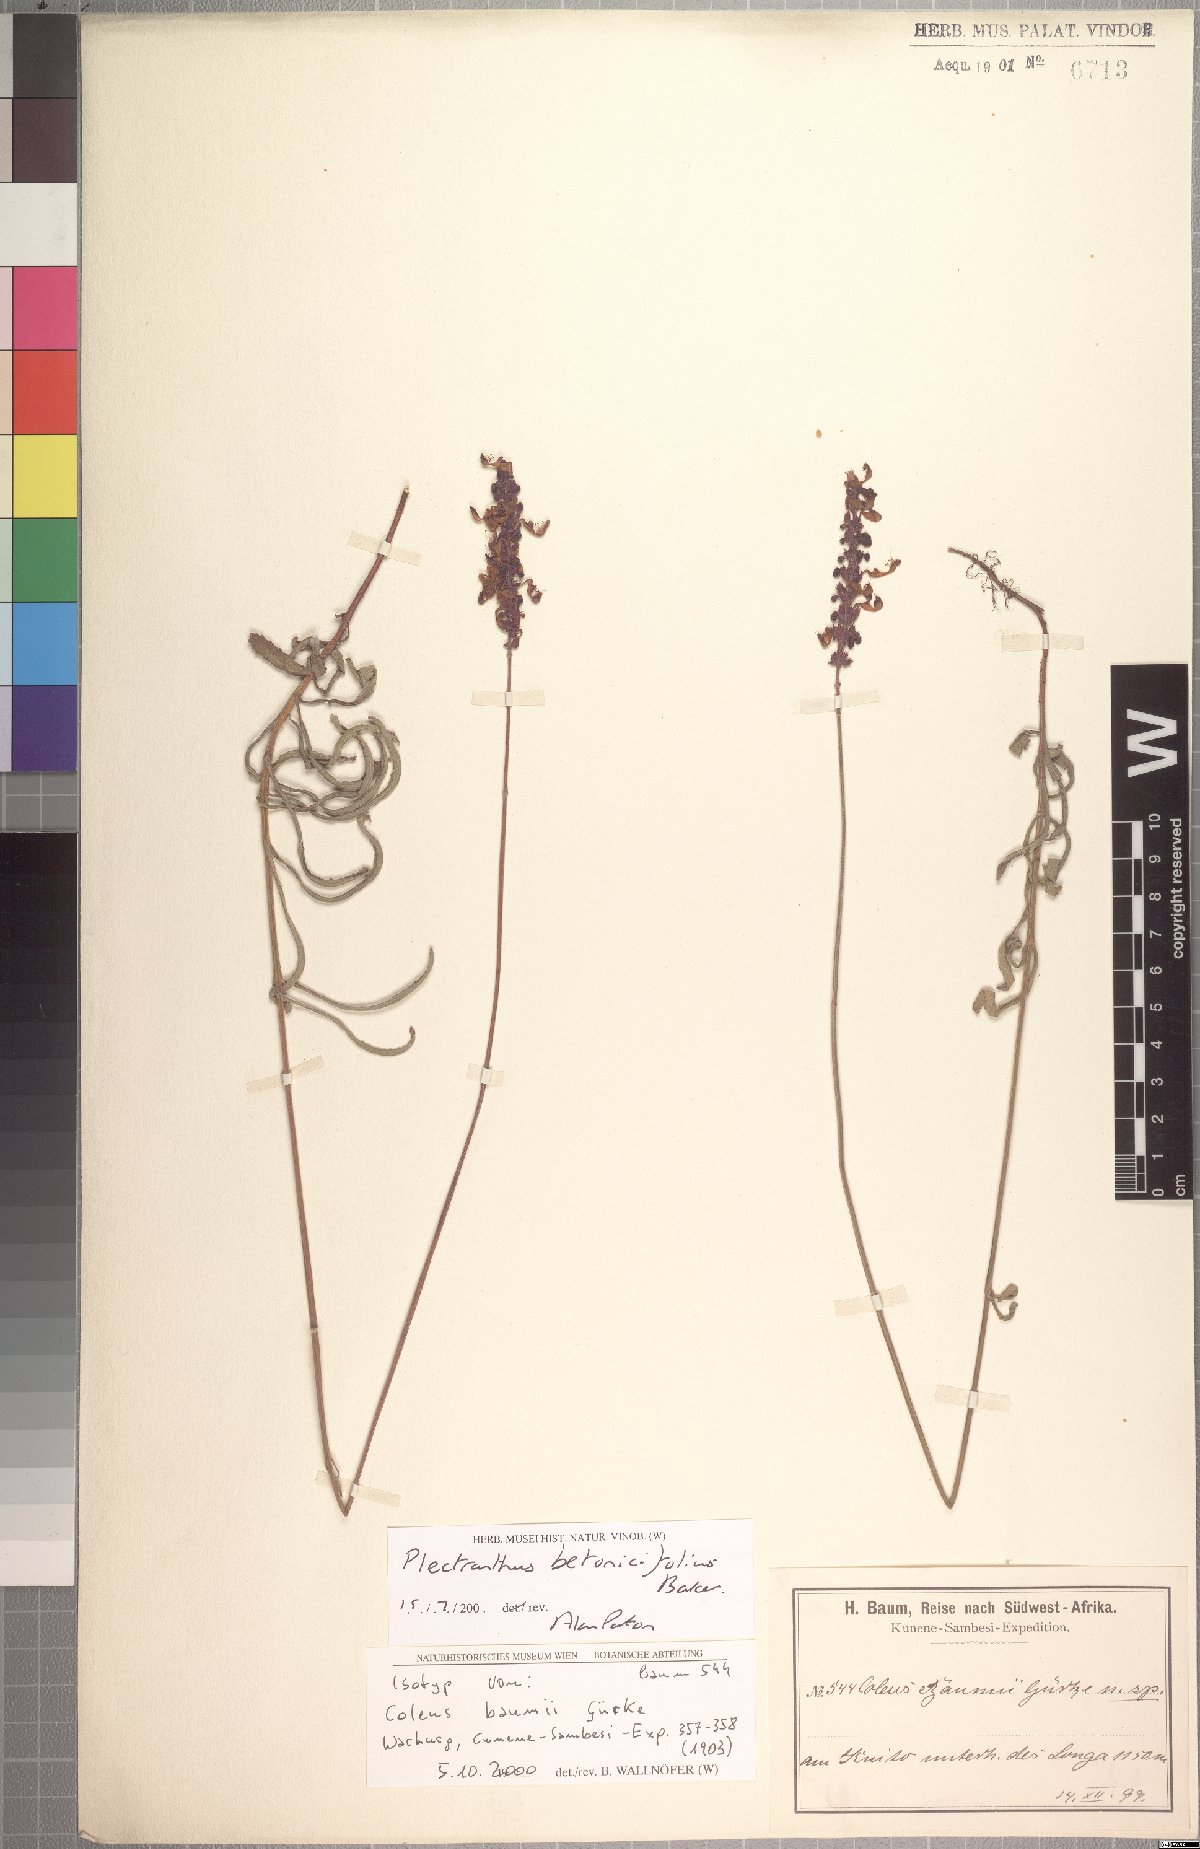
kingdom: Plantae
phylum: Tracheophyta
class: Magnoliopsida
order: Lamiales
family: Lamiaceae
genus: Coleus
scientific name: Coleus betonicifolius
